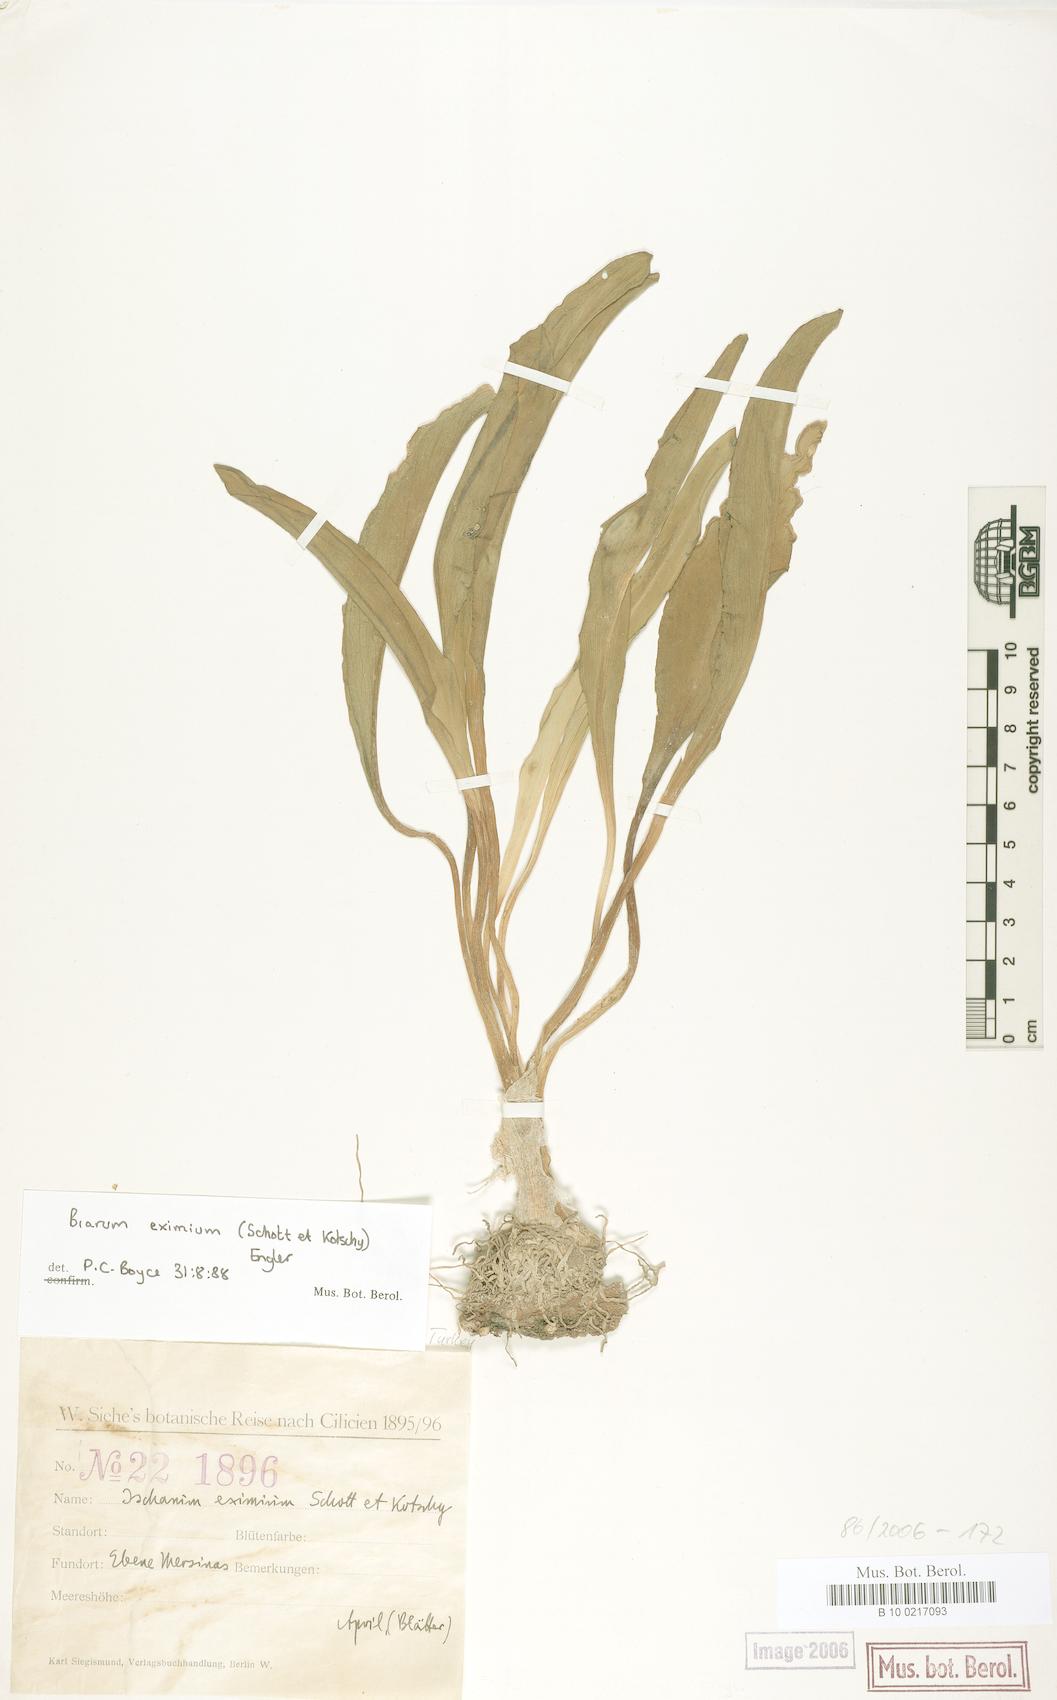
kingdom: Plantae
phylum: Tracheophyta
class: Liliopsida
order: Alismatales
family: Araceae
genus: Biarum
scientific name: Biarum eximium
